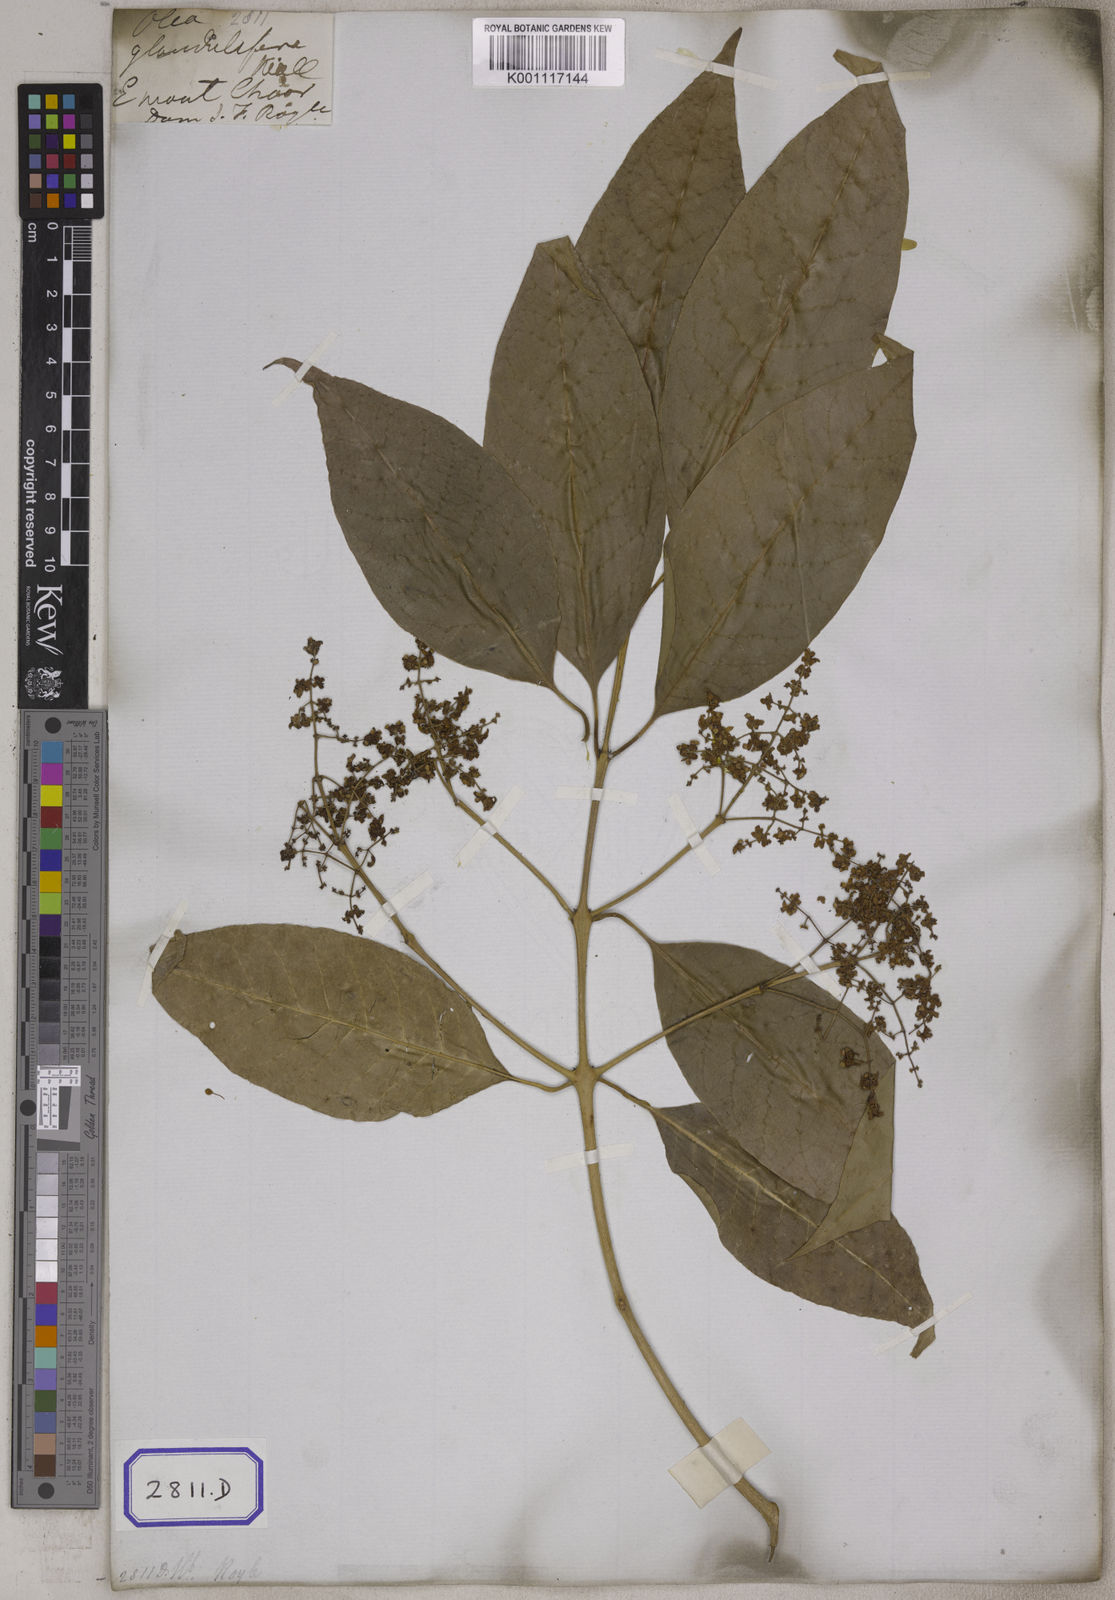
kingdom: Plantae
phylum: Tracheophyta
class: Magnoliopsida
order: Lamiales
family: Oleaceae
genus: Olea
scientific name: Olea paniculata
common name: Australian olive
